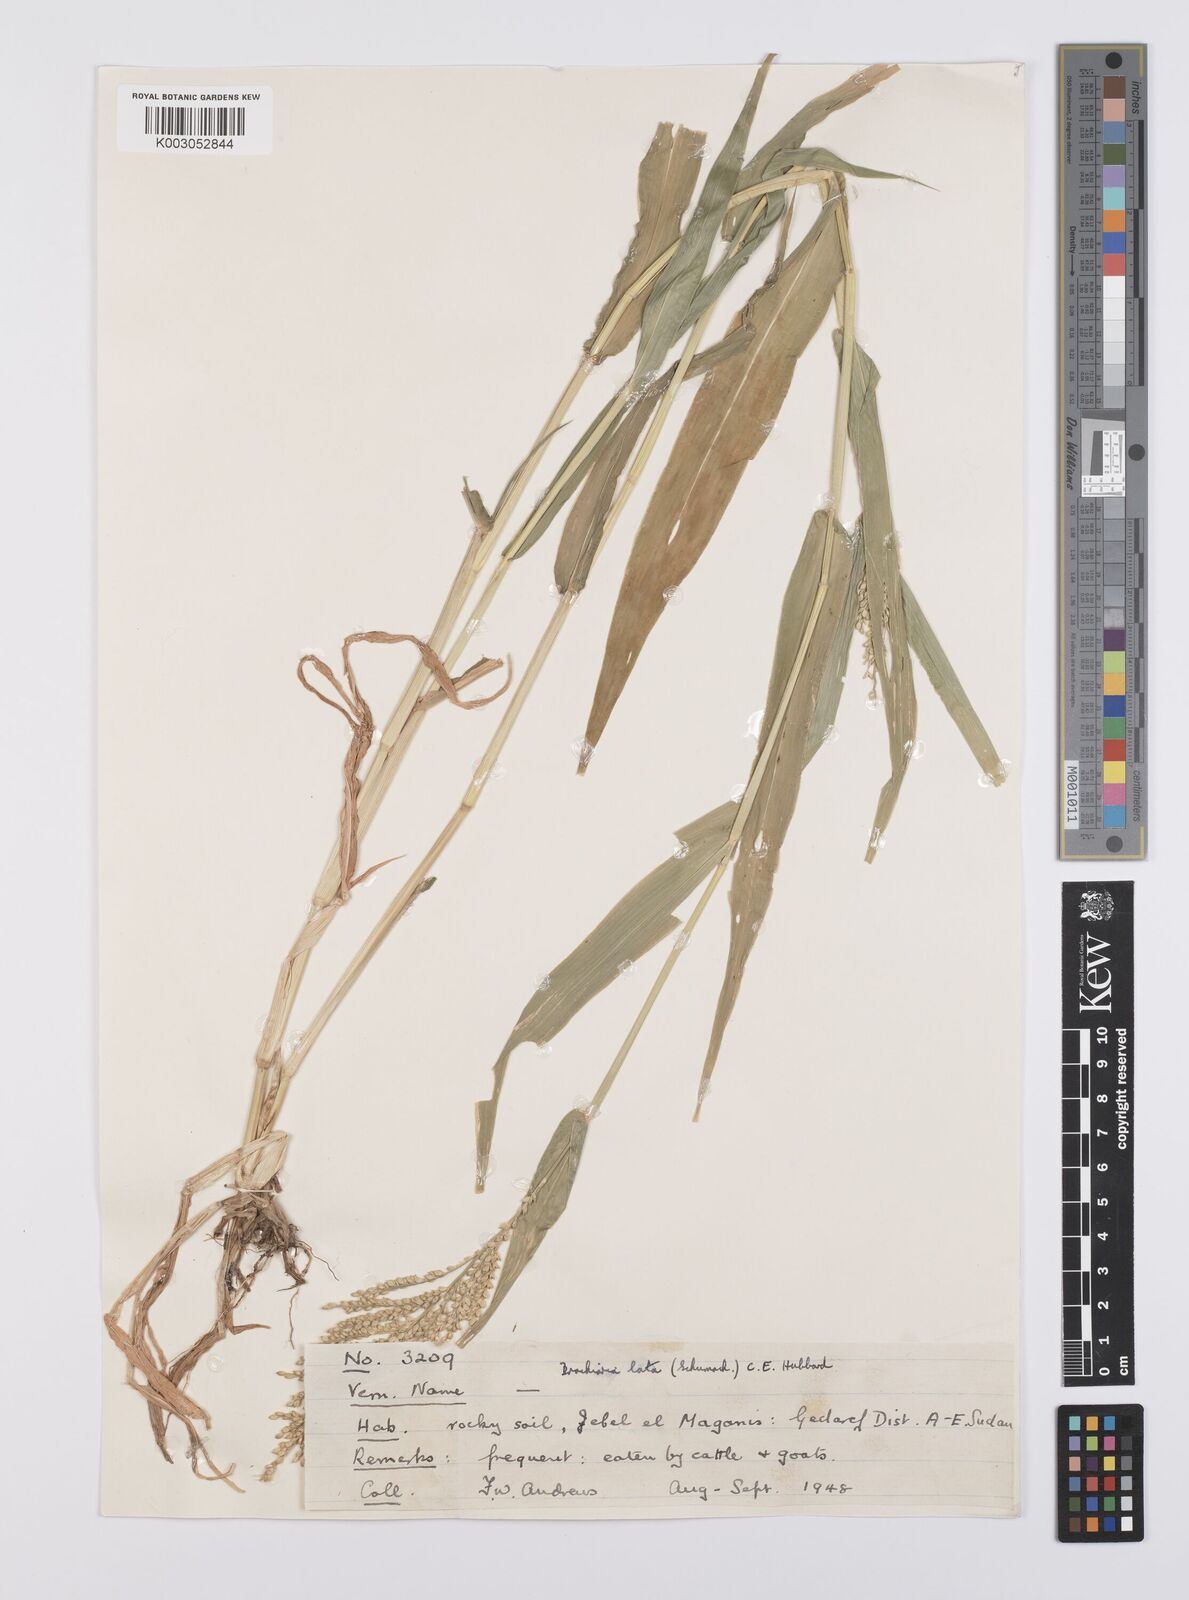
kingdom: Plantae
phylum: Tracheophyta
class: Liliopsida
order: Poales
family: Poaceae
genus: Urochloa
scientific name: Urochloa lata
